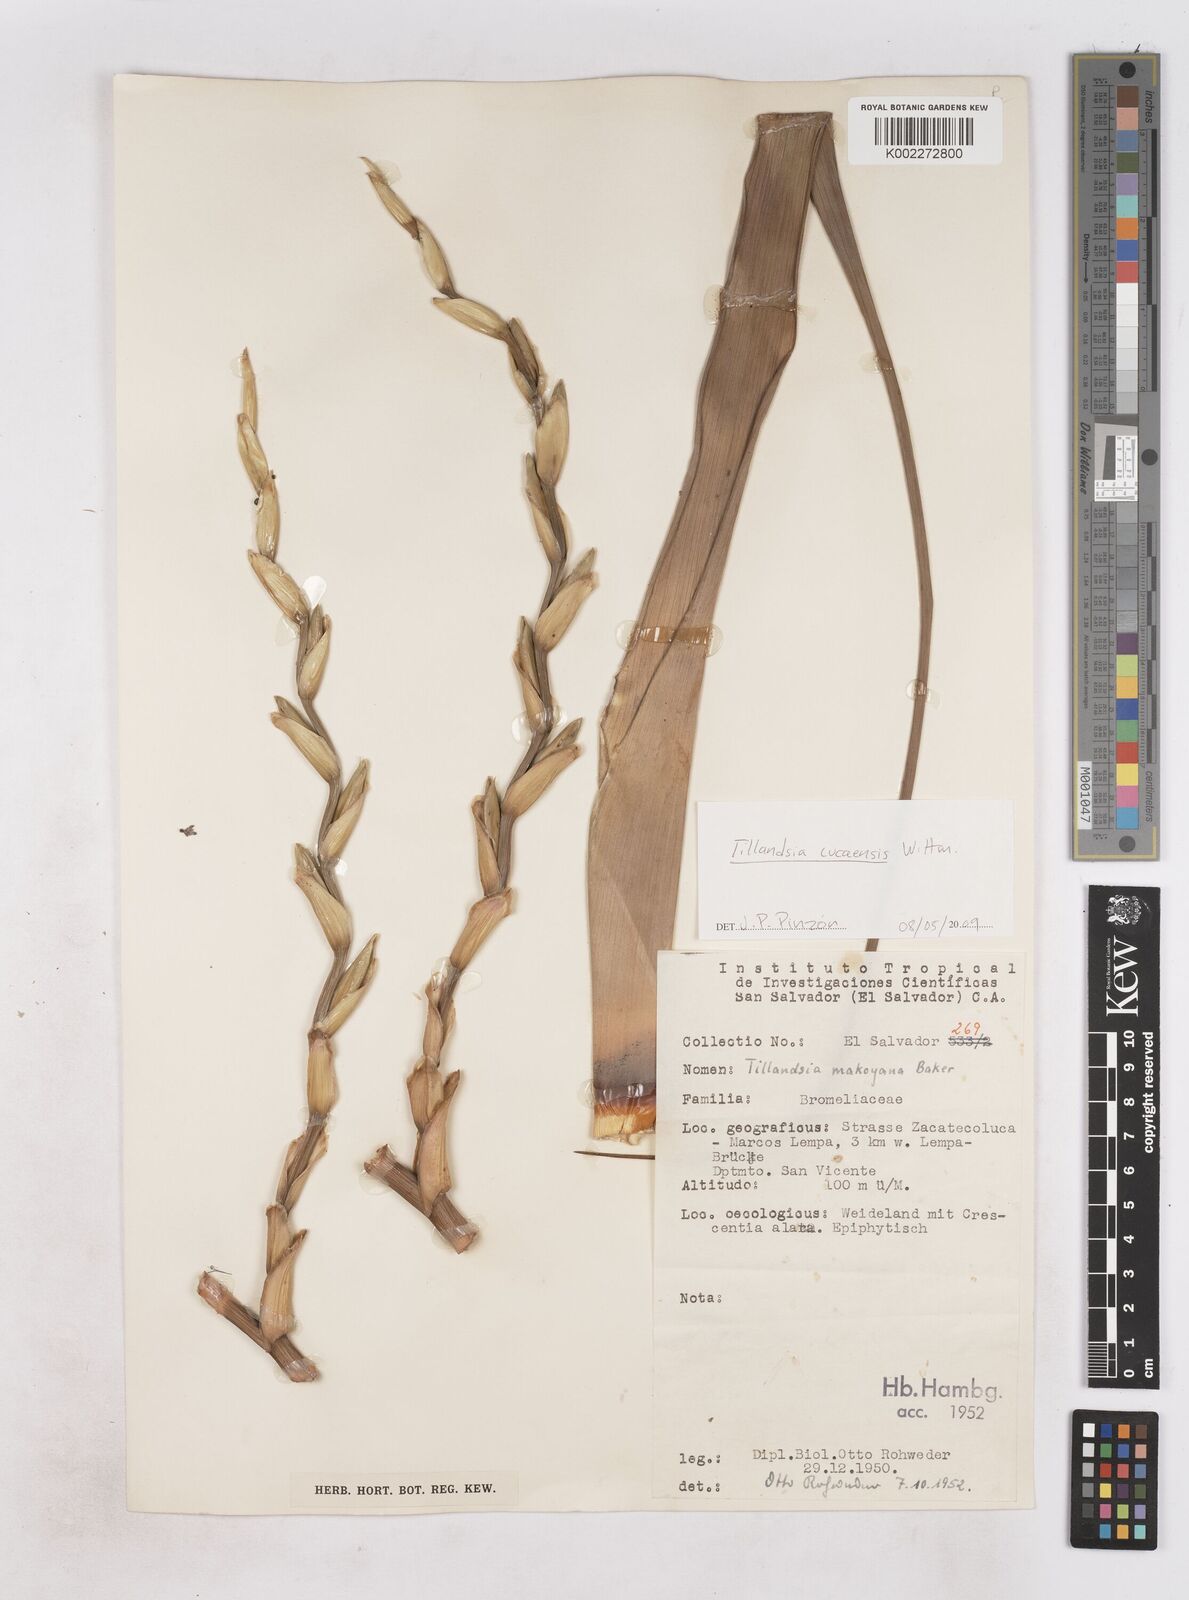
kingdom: Plantae
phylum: Tracheophyta
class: Liliopsida
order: Poales
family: Bromeliaceae
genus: Tillandsia
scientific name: Tillandsia makoyana
